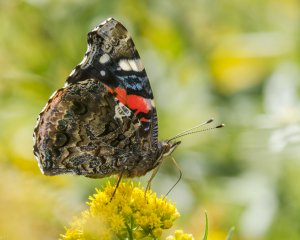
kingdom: Animalia
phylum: Arthropoda
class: Insecta
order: Lepidoptera
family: Nymphalidae
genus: Vanessa
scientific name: Vanessa atalanta
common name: Red Admiral
